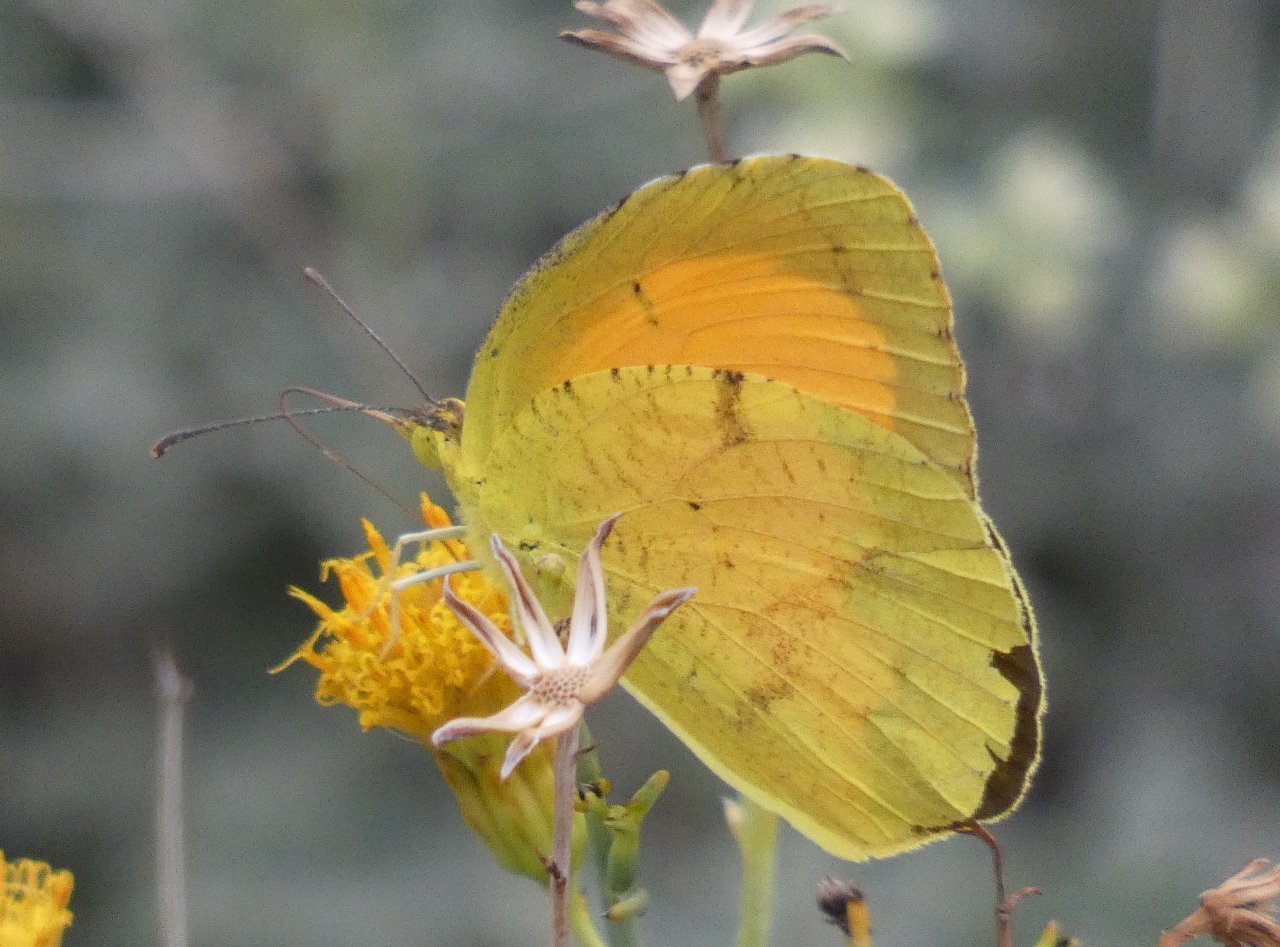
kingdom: Animalia
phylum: Arthropoda
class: Insecta
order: Lepidoptera
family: Pieridae
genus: Abaeis
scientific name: Abaeis nicippe
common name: Sleepy Orange
